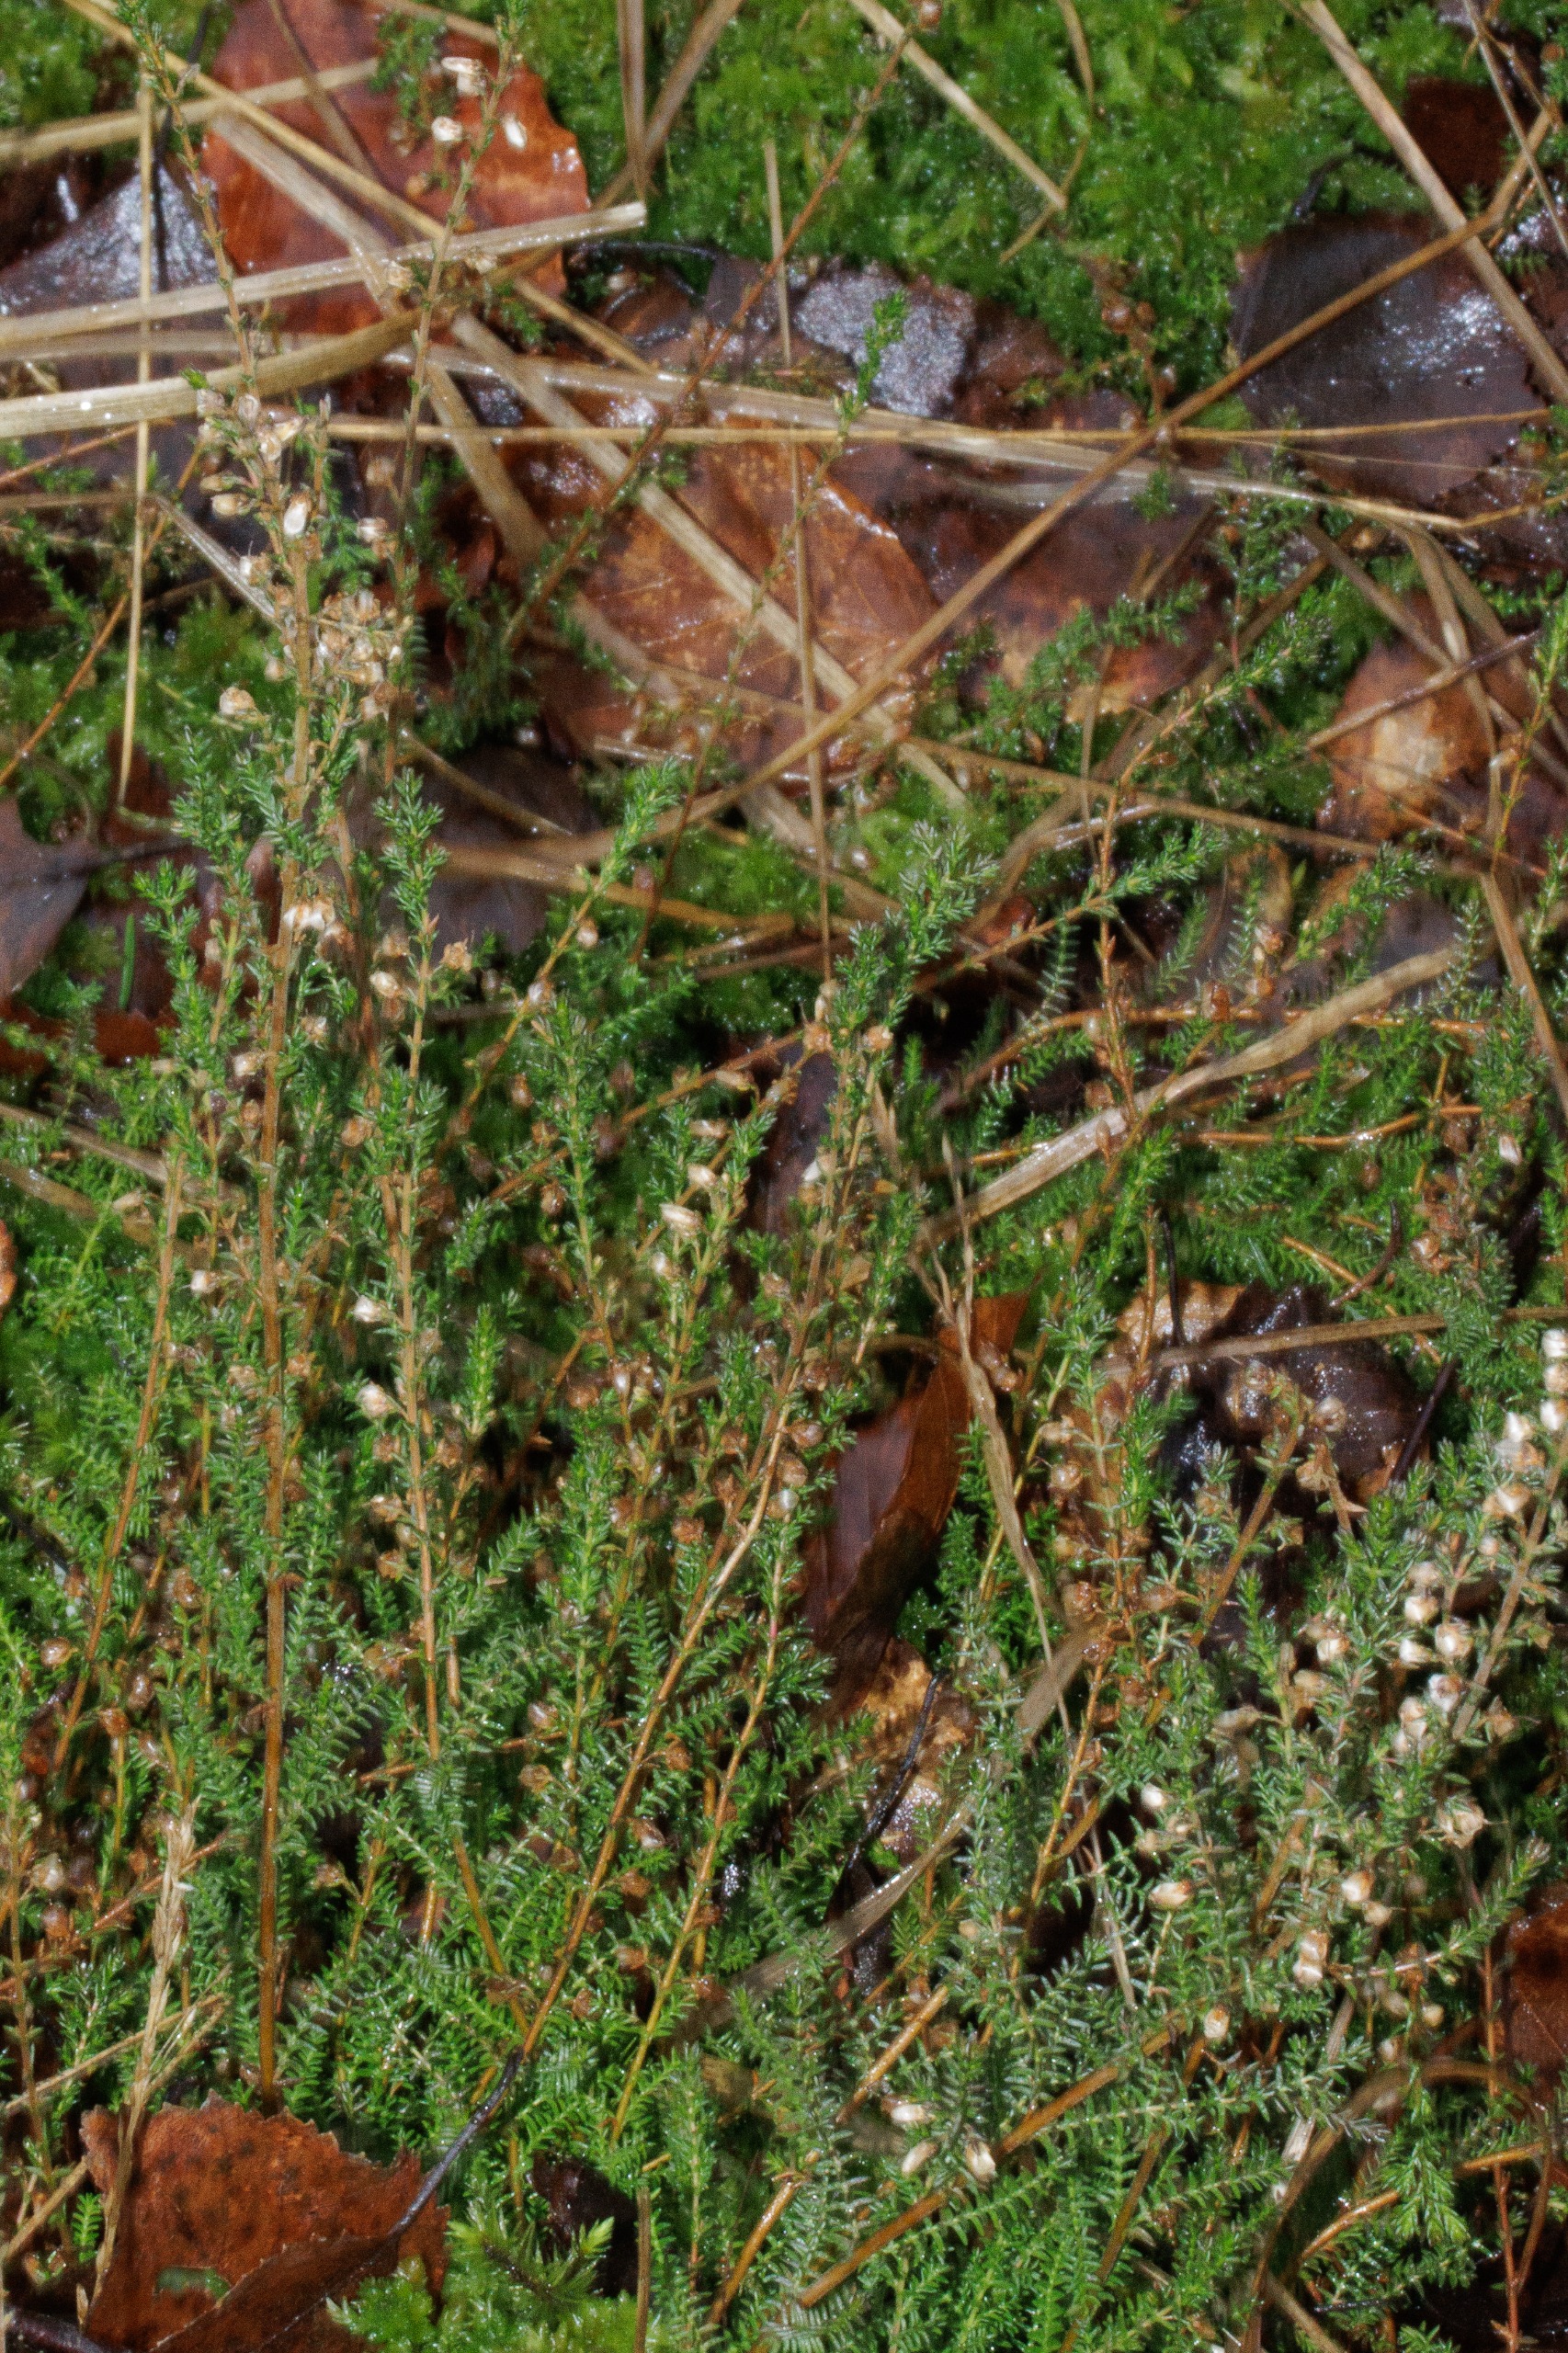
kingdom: Plantae
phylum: Tracheophyta
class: Magnoliopsida
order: Ericales
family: Ericaceae
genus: Calluna
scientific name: Calluna vulgaris
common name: Hedelyng
